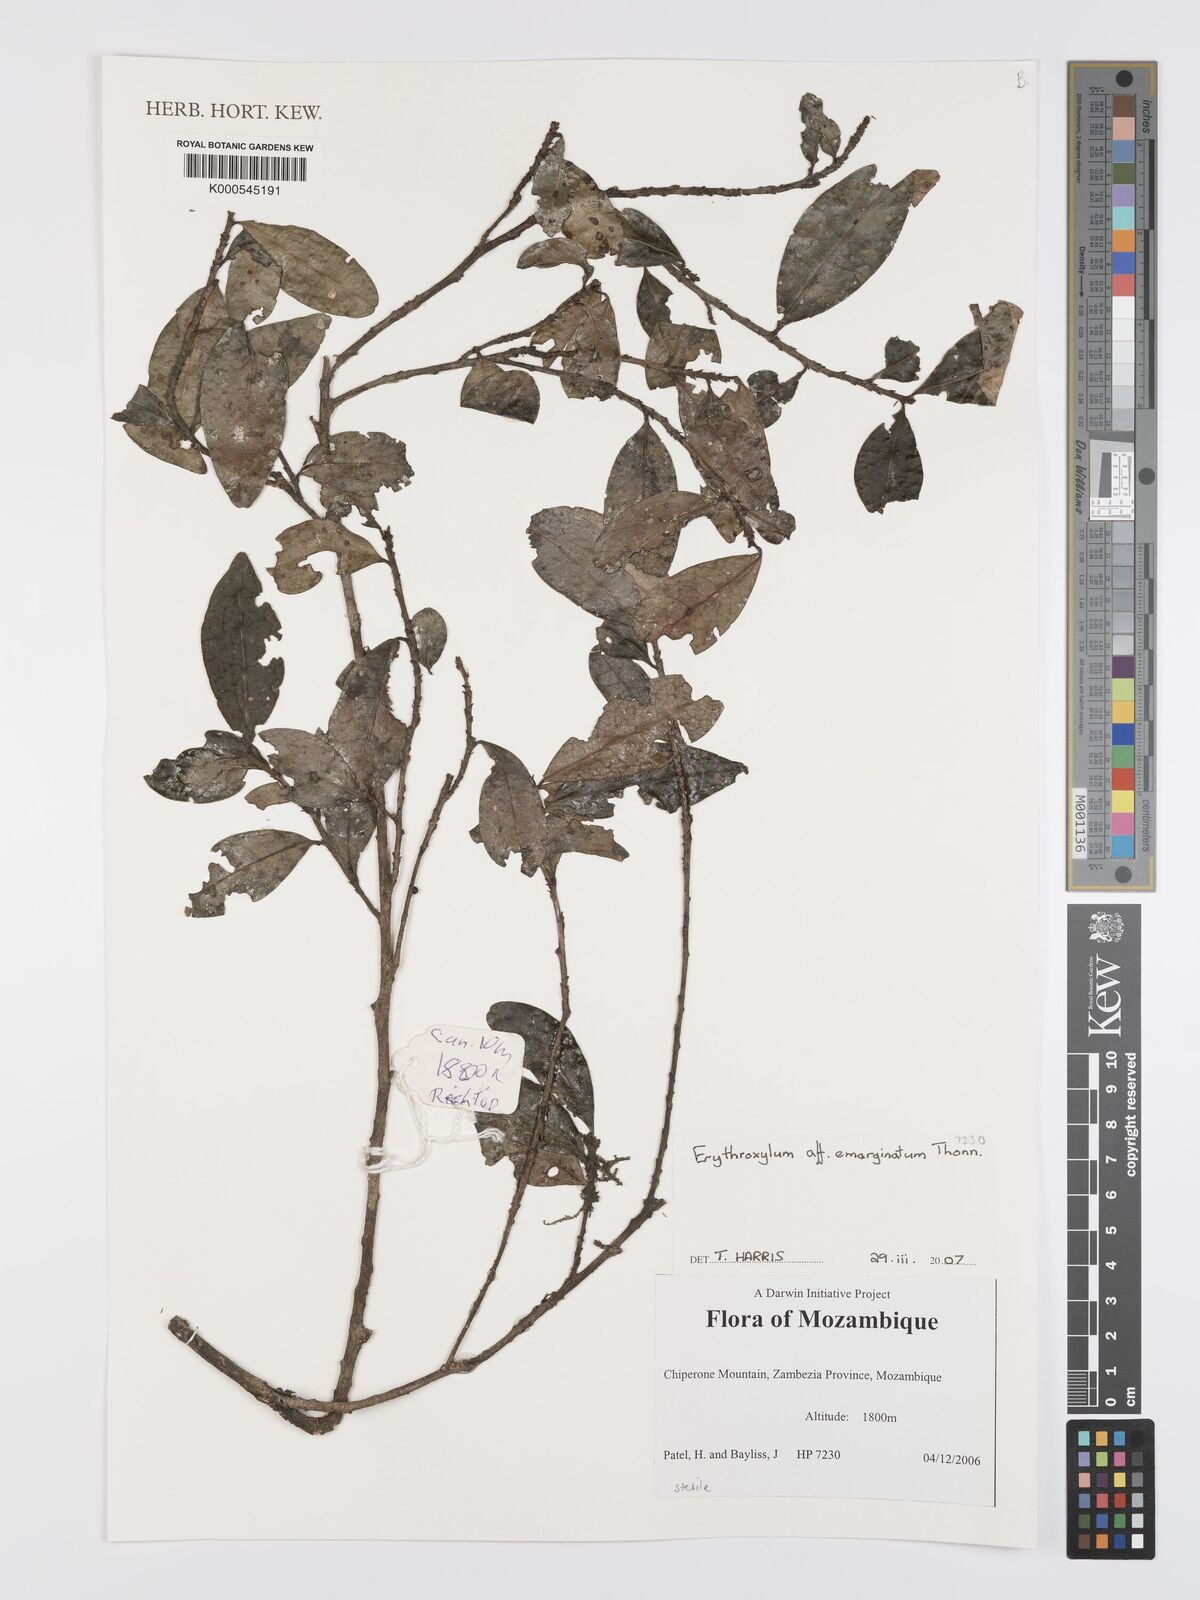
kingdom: Plantae
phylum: Tracheophyta
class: Magnoliopsida
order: Malpighiales
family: Erythroxylaceae
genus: Erythroxylum
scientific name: Erythroxylum emarginatum
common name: African coca-tree
